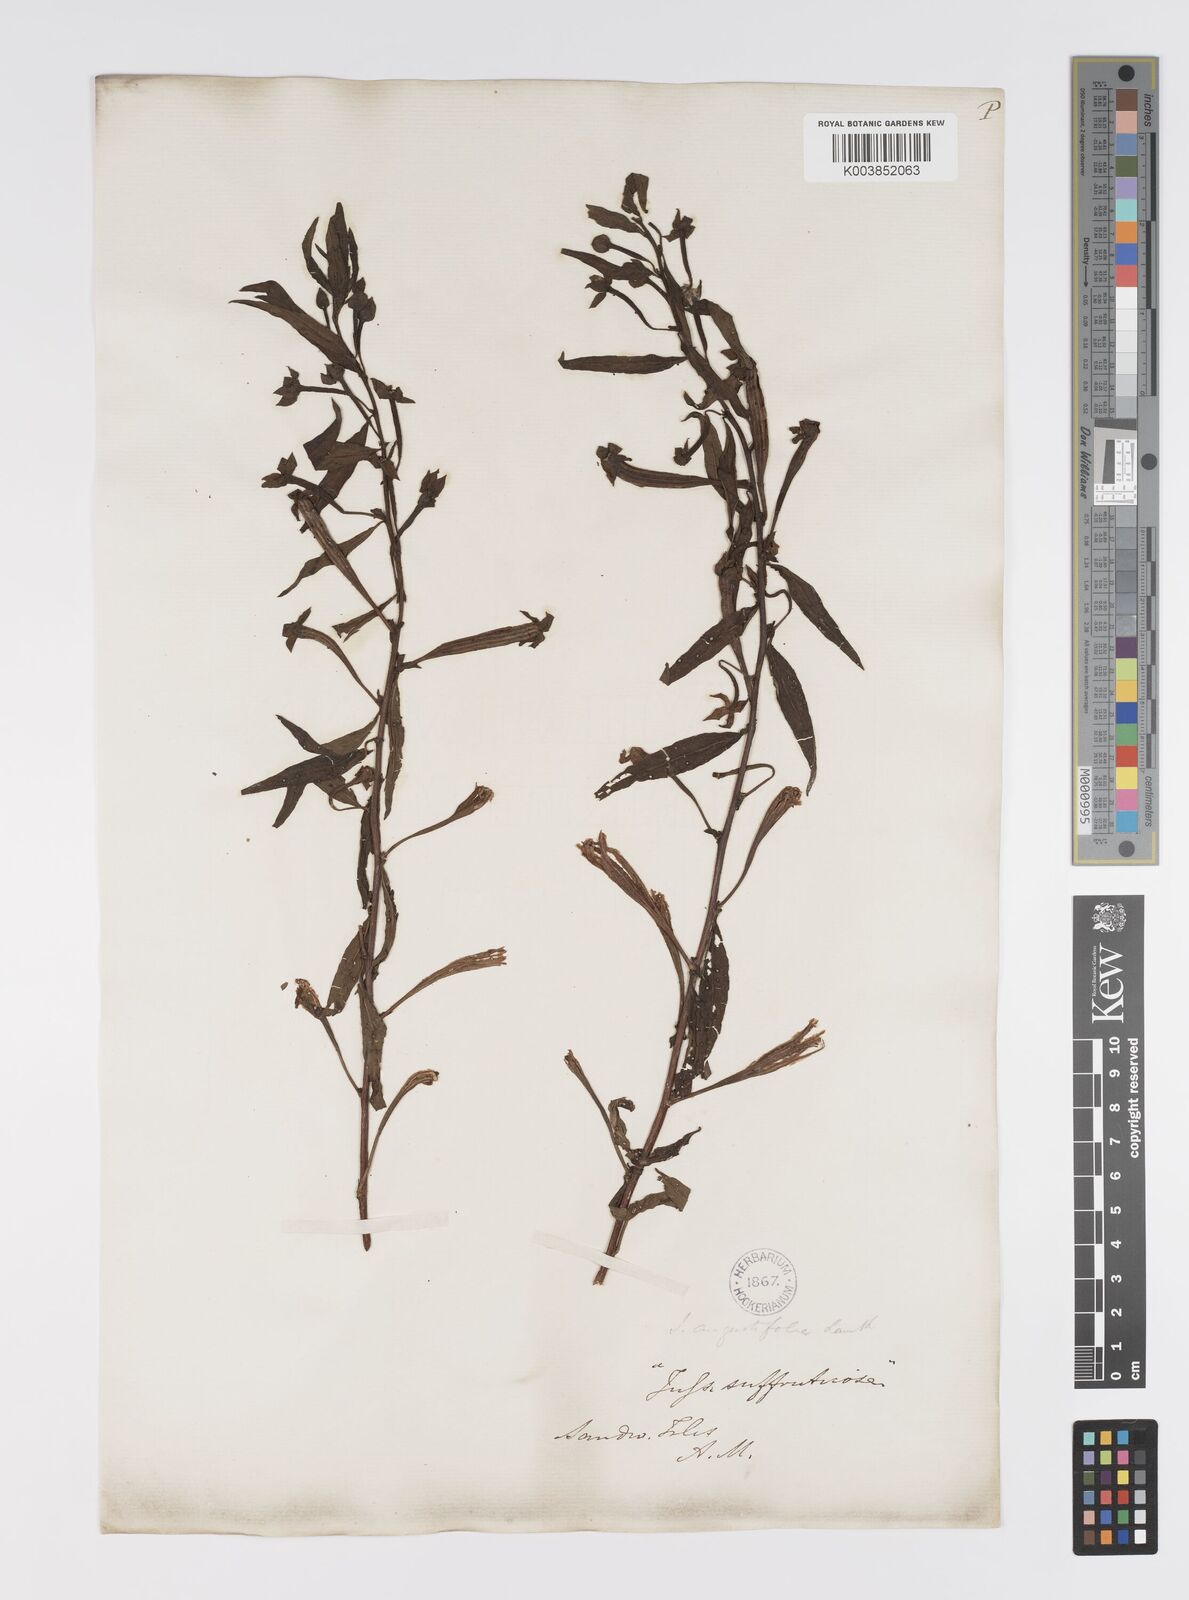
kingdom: Plantae
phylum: Tracheophyta
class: Magnoliopsida
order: Myrtales
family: Onagraceae
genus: Ludwigia
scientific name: Ludwigia octovalvis
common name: Water-primrose
